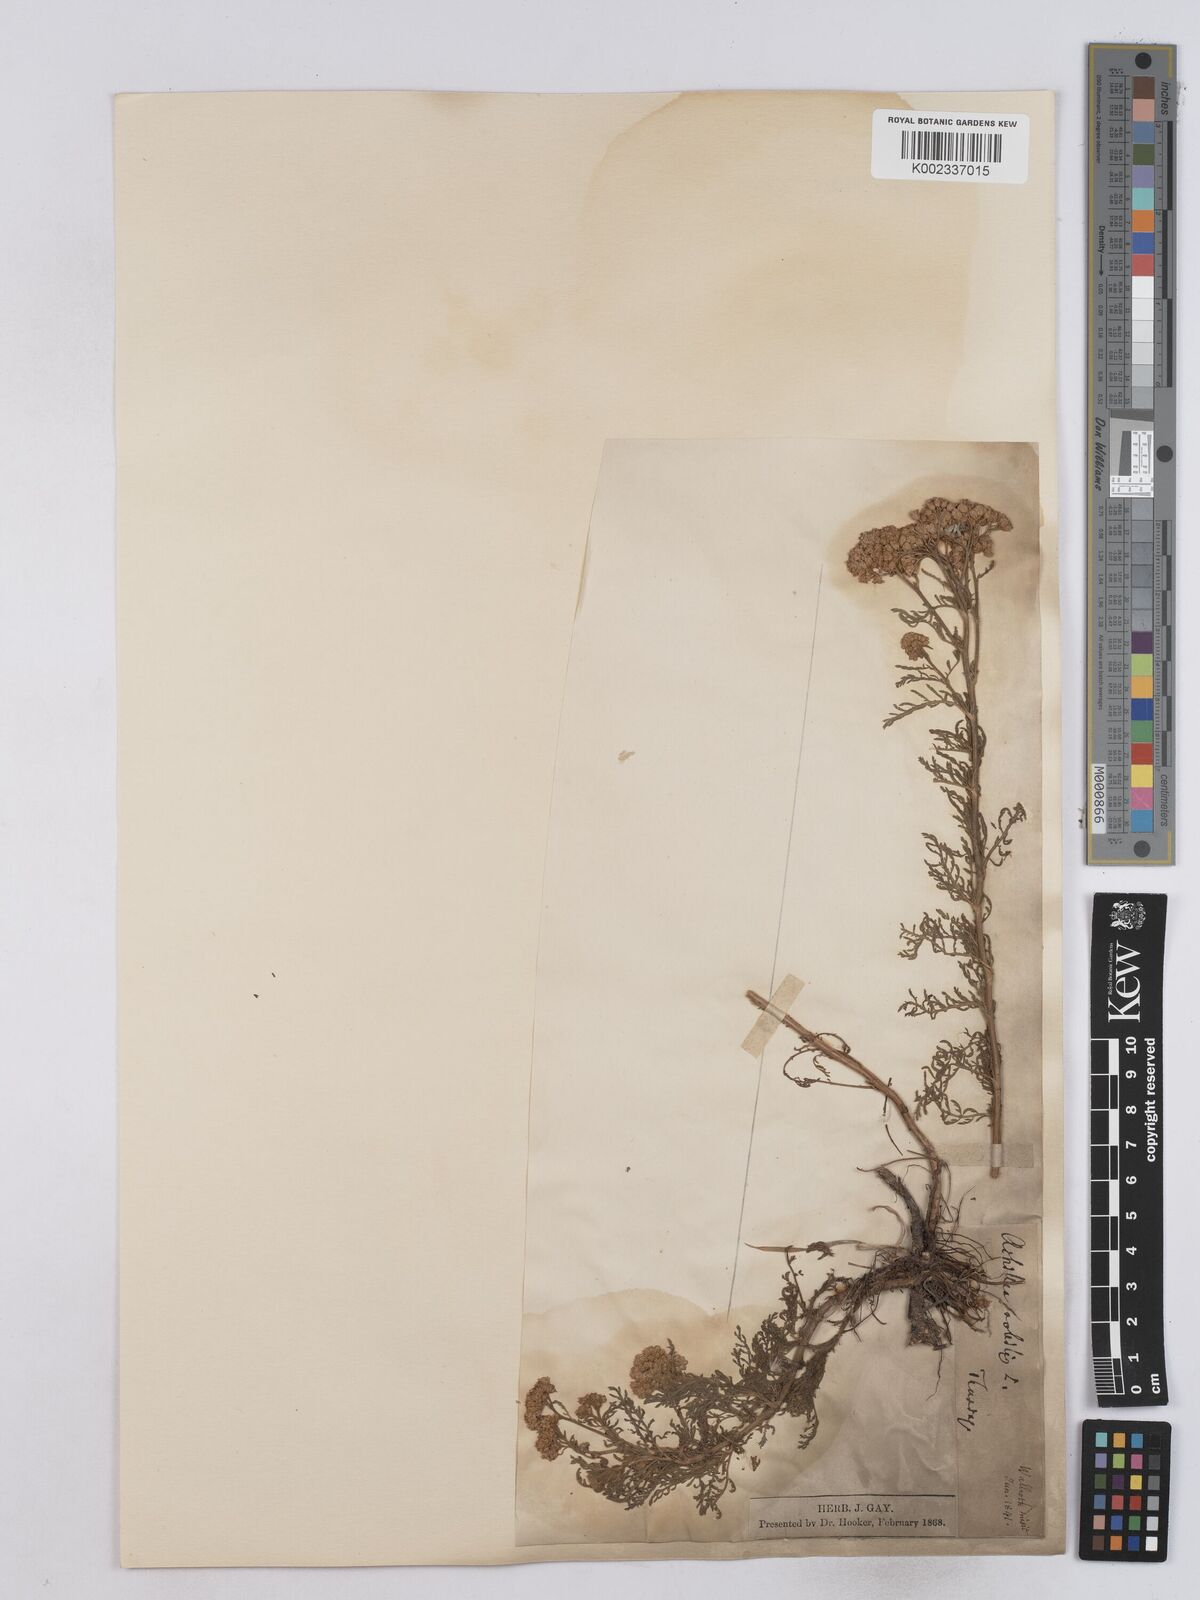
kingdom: Plantae
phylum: Tracheophyta
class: Magnoliopsida
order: Asterales
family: Asteraceae
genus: Achillea
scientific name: Achillea nobilis
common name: Noble yarrow
